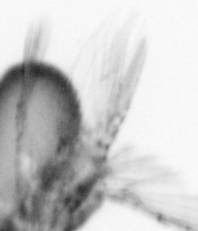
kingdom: Animalia
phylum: Arthropoda
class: Copepoda
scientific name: Copepoda
